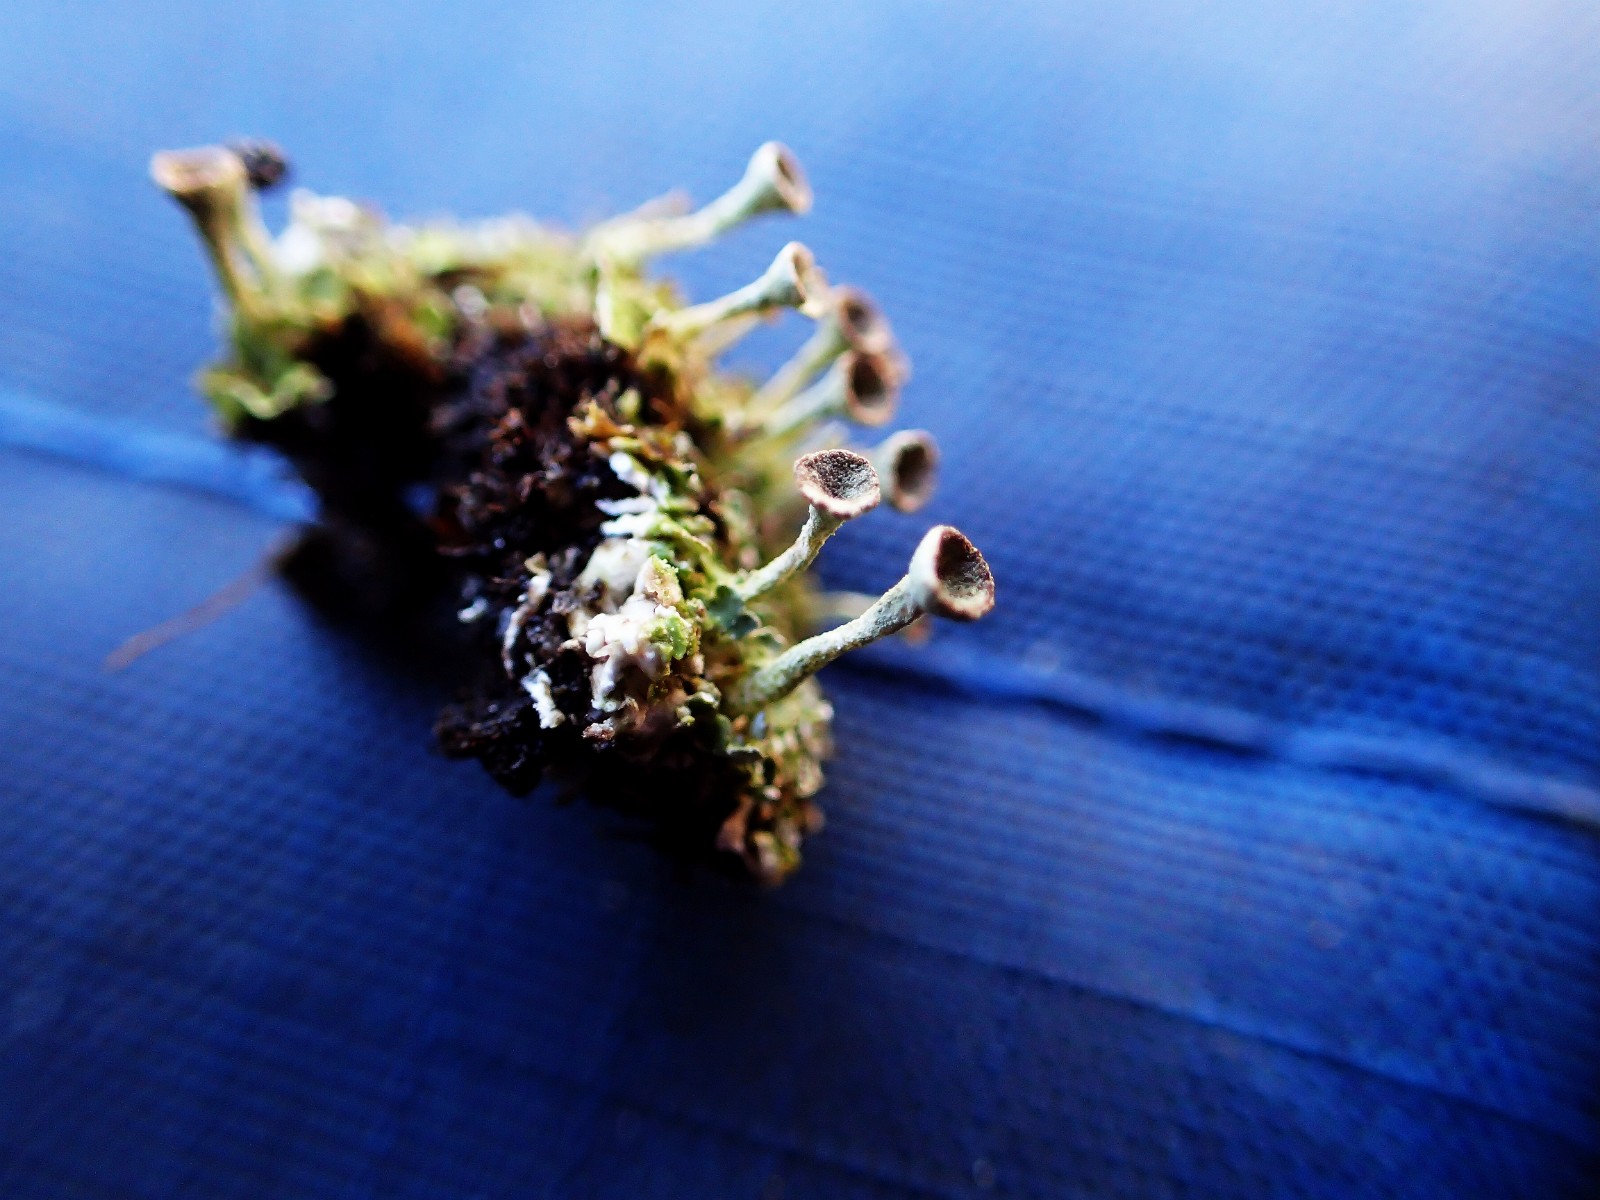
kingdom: Fungi
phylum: Ascomycota
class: Lecanoromycetes
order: Lecanorales
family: Cladoniaceae
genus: Cladonia
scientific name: Cladonia
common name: brungrøn bægerlav
